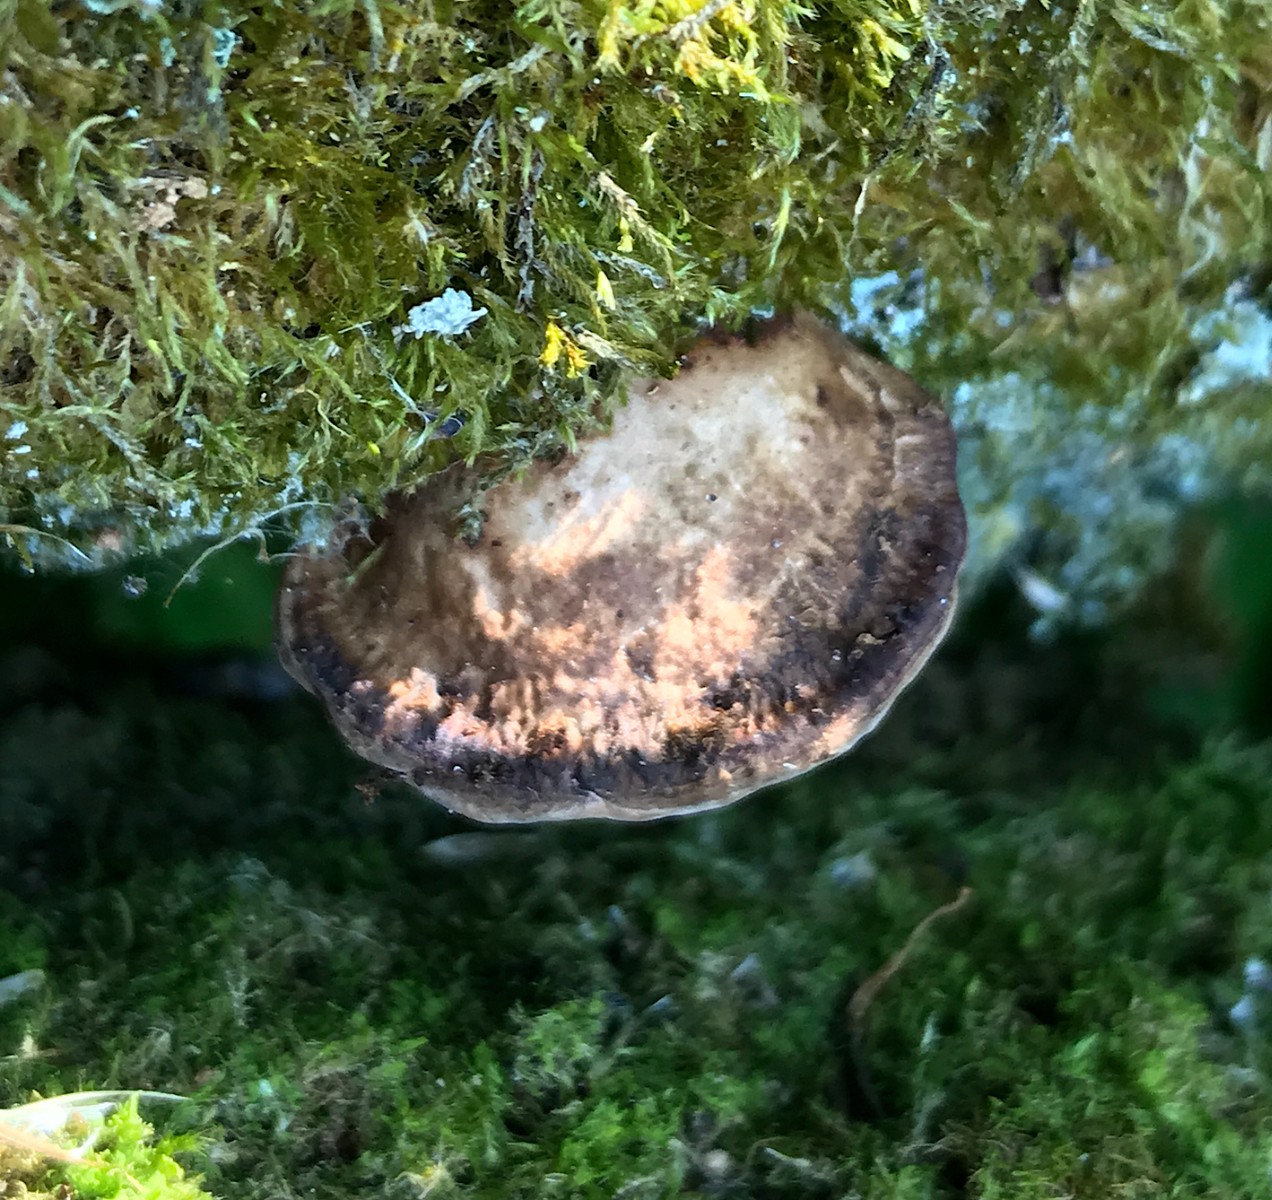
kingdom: Fungi
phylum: Basidiomycota
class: Agaricomycetes
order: Polyporales
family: Polyporaceae
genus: Daedaleopsis
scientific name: Daedaleopsis confragosa
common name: rødmende læderporesvamp
